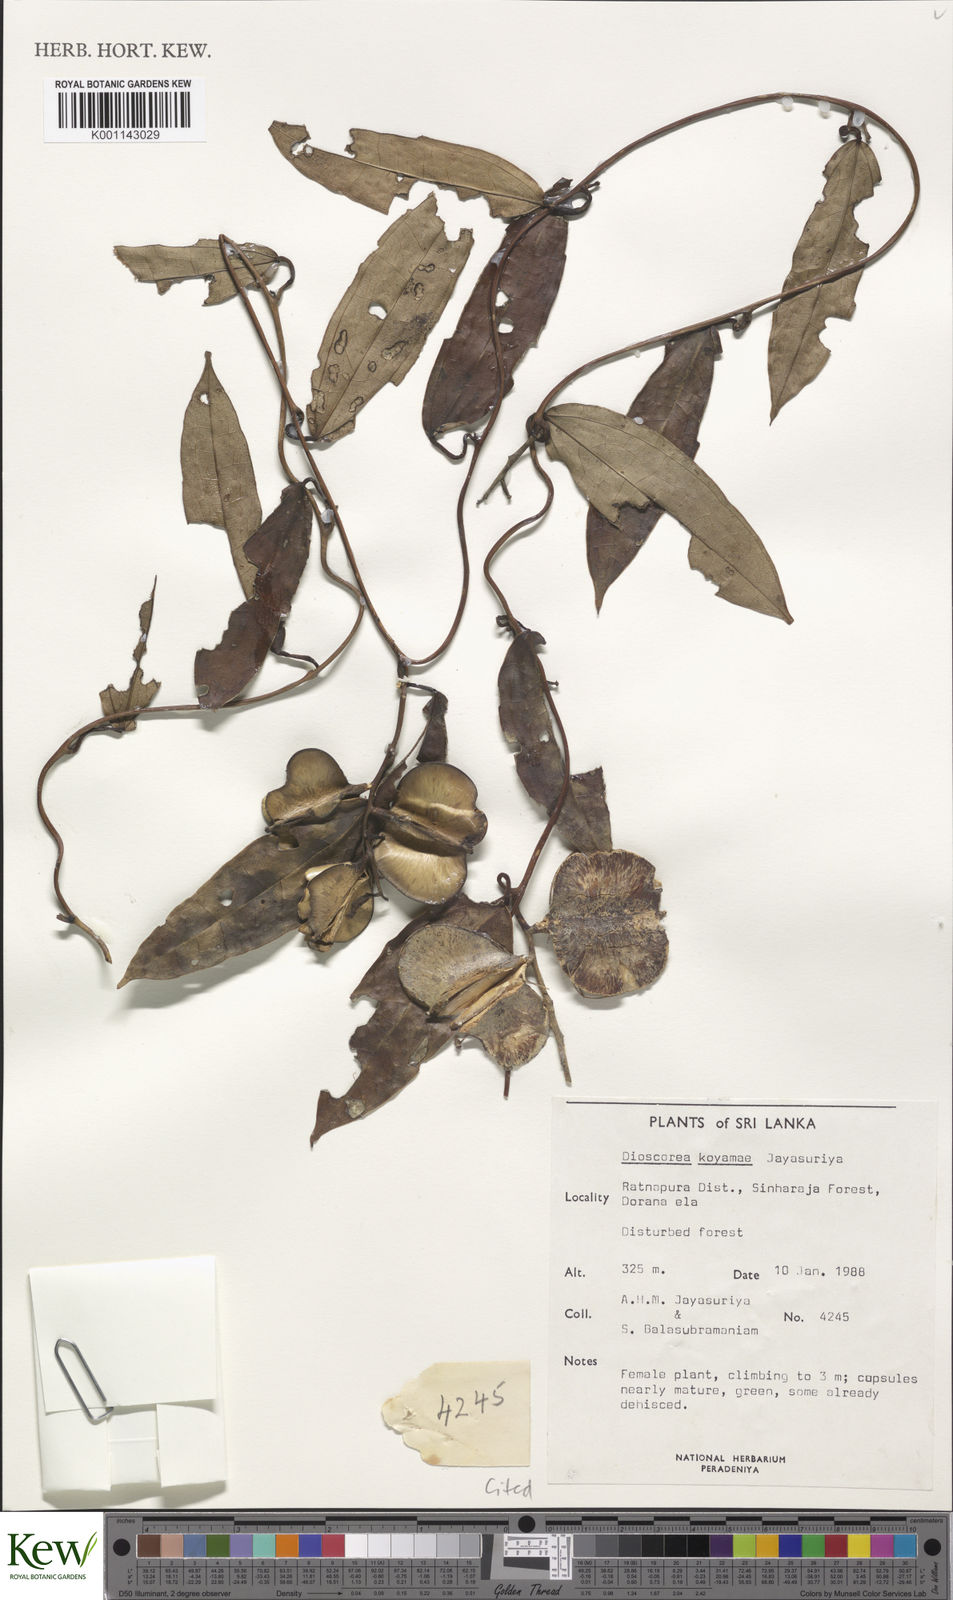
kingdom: Plantae
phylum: Tracheophyta
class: Liliopsida
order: Dioscoreales
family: Dioscoreaceae
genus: Dioscorea
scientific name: Dioscorea koyamae
